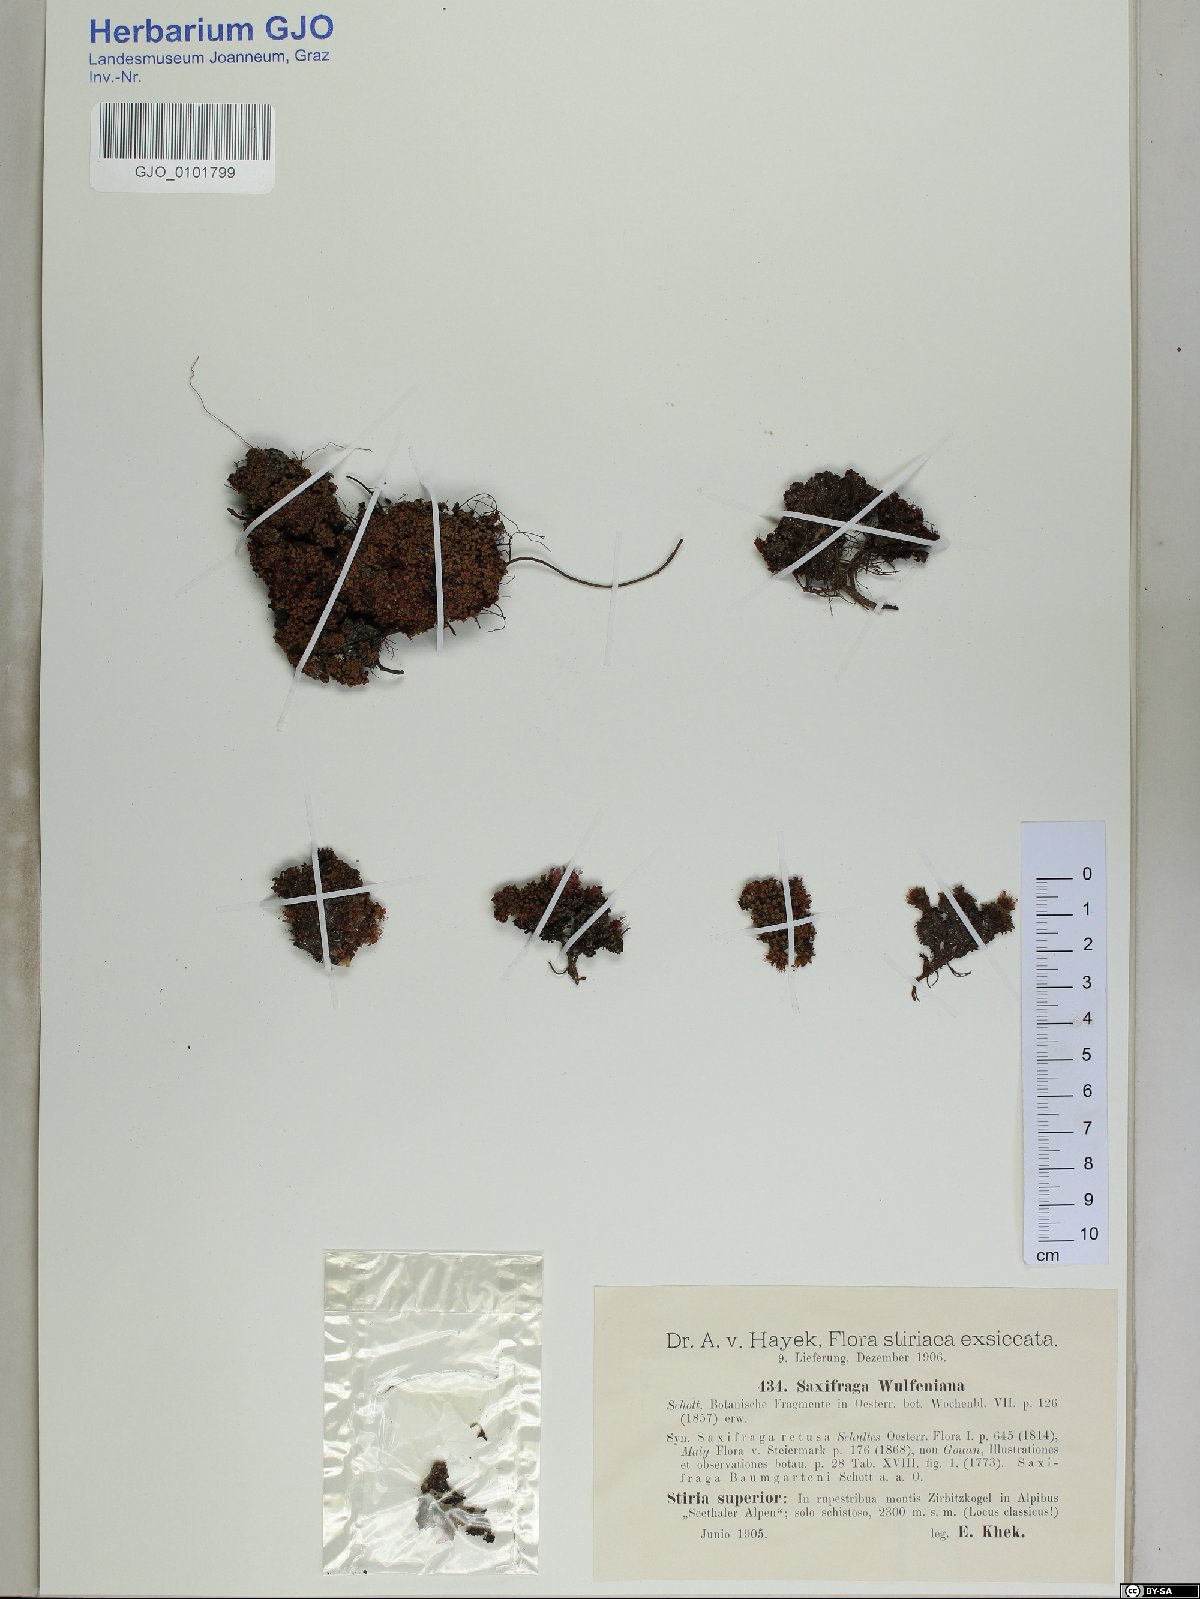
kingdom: Plantae
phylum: Tracheophyta
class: Magnoliopsida
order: Saxifragales
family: Saxifragaceae
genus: Saxifraga
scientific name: Saxifraga retusa
